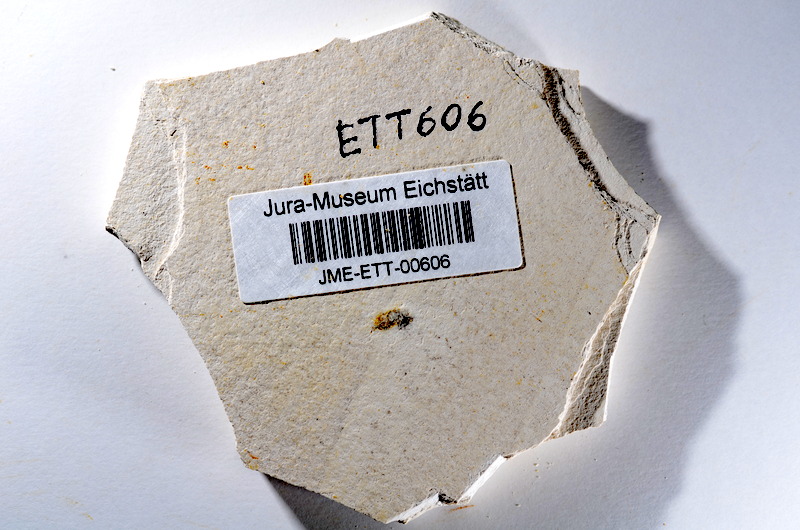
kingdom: Animalia
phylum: Chordata
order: Salmoniformes
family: Orthogonikleithridae
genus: Orthogonikleithrus
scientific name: Orthogonikleithrus hoelli
